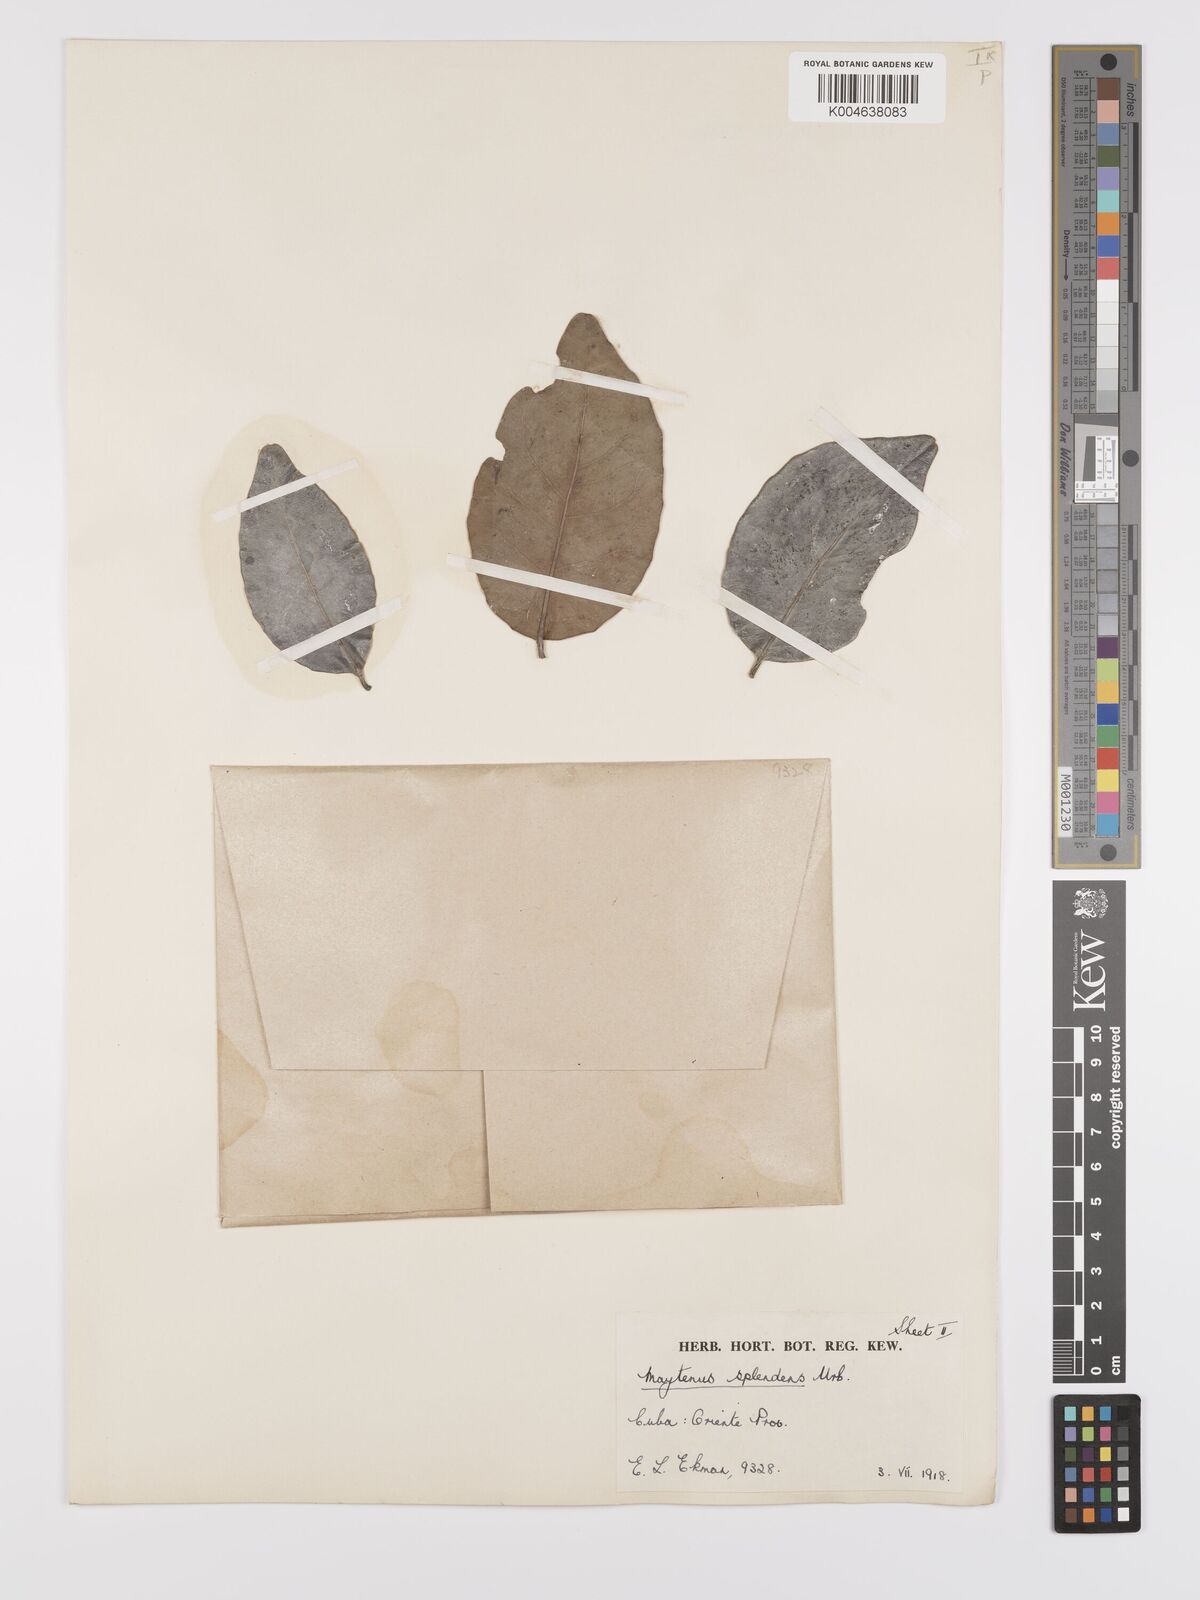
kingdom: Plantae
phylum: Tracheophyta
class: Magnoliopsida
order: Celastrales
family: Celastraceae
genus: Monteverdia
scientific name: Monteverdia splendens
